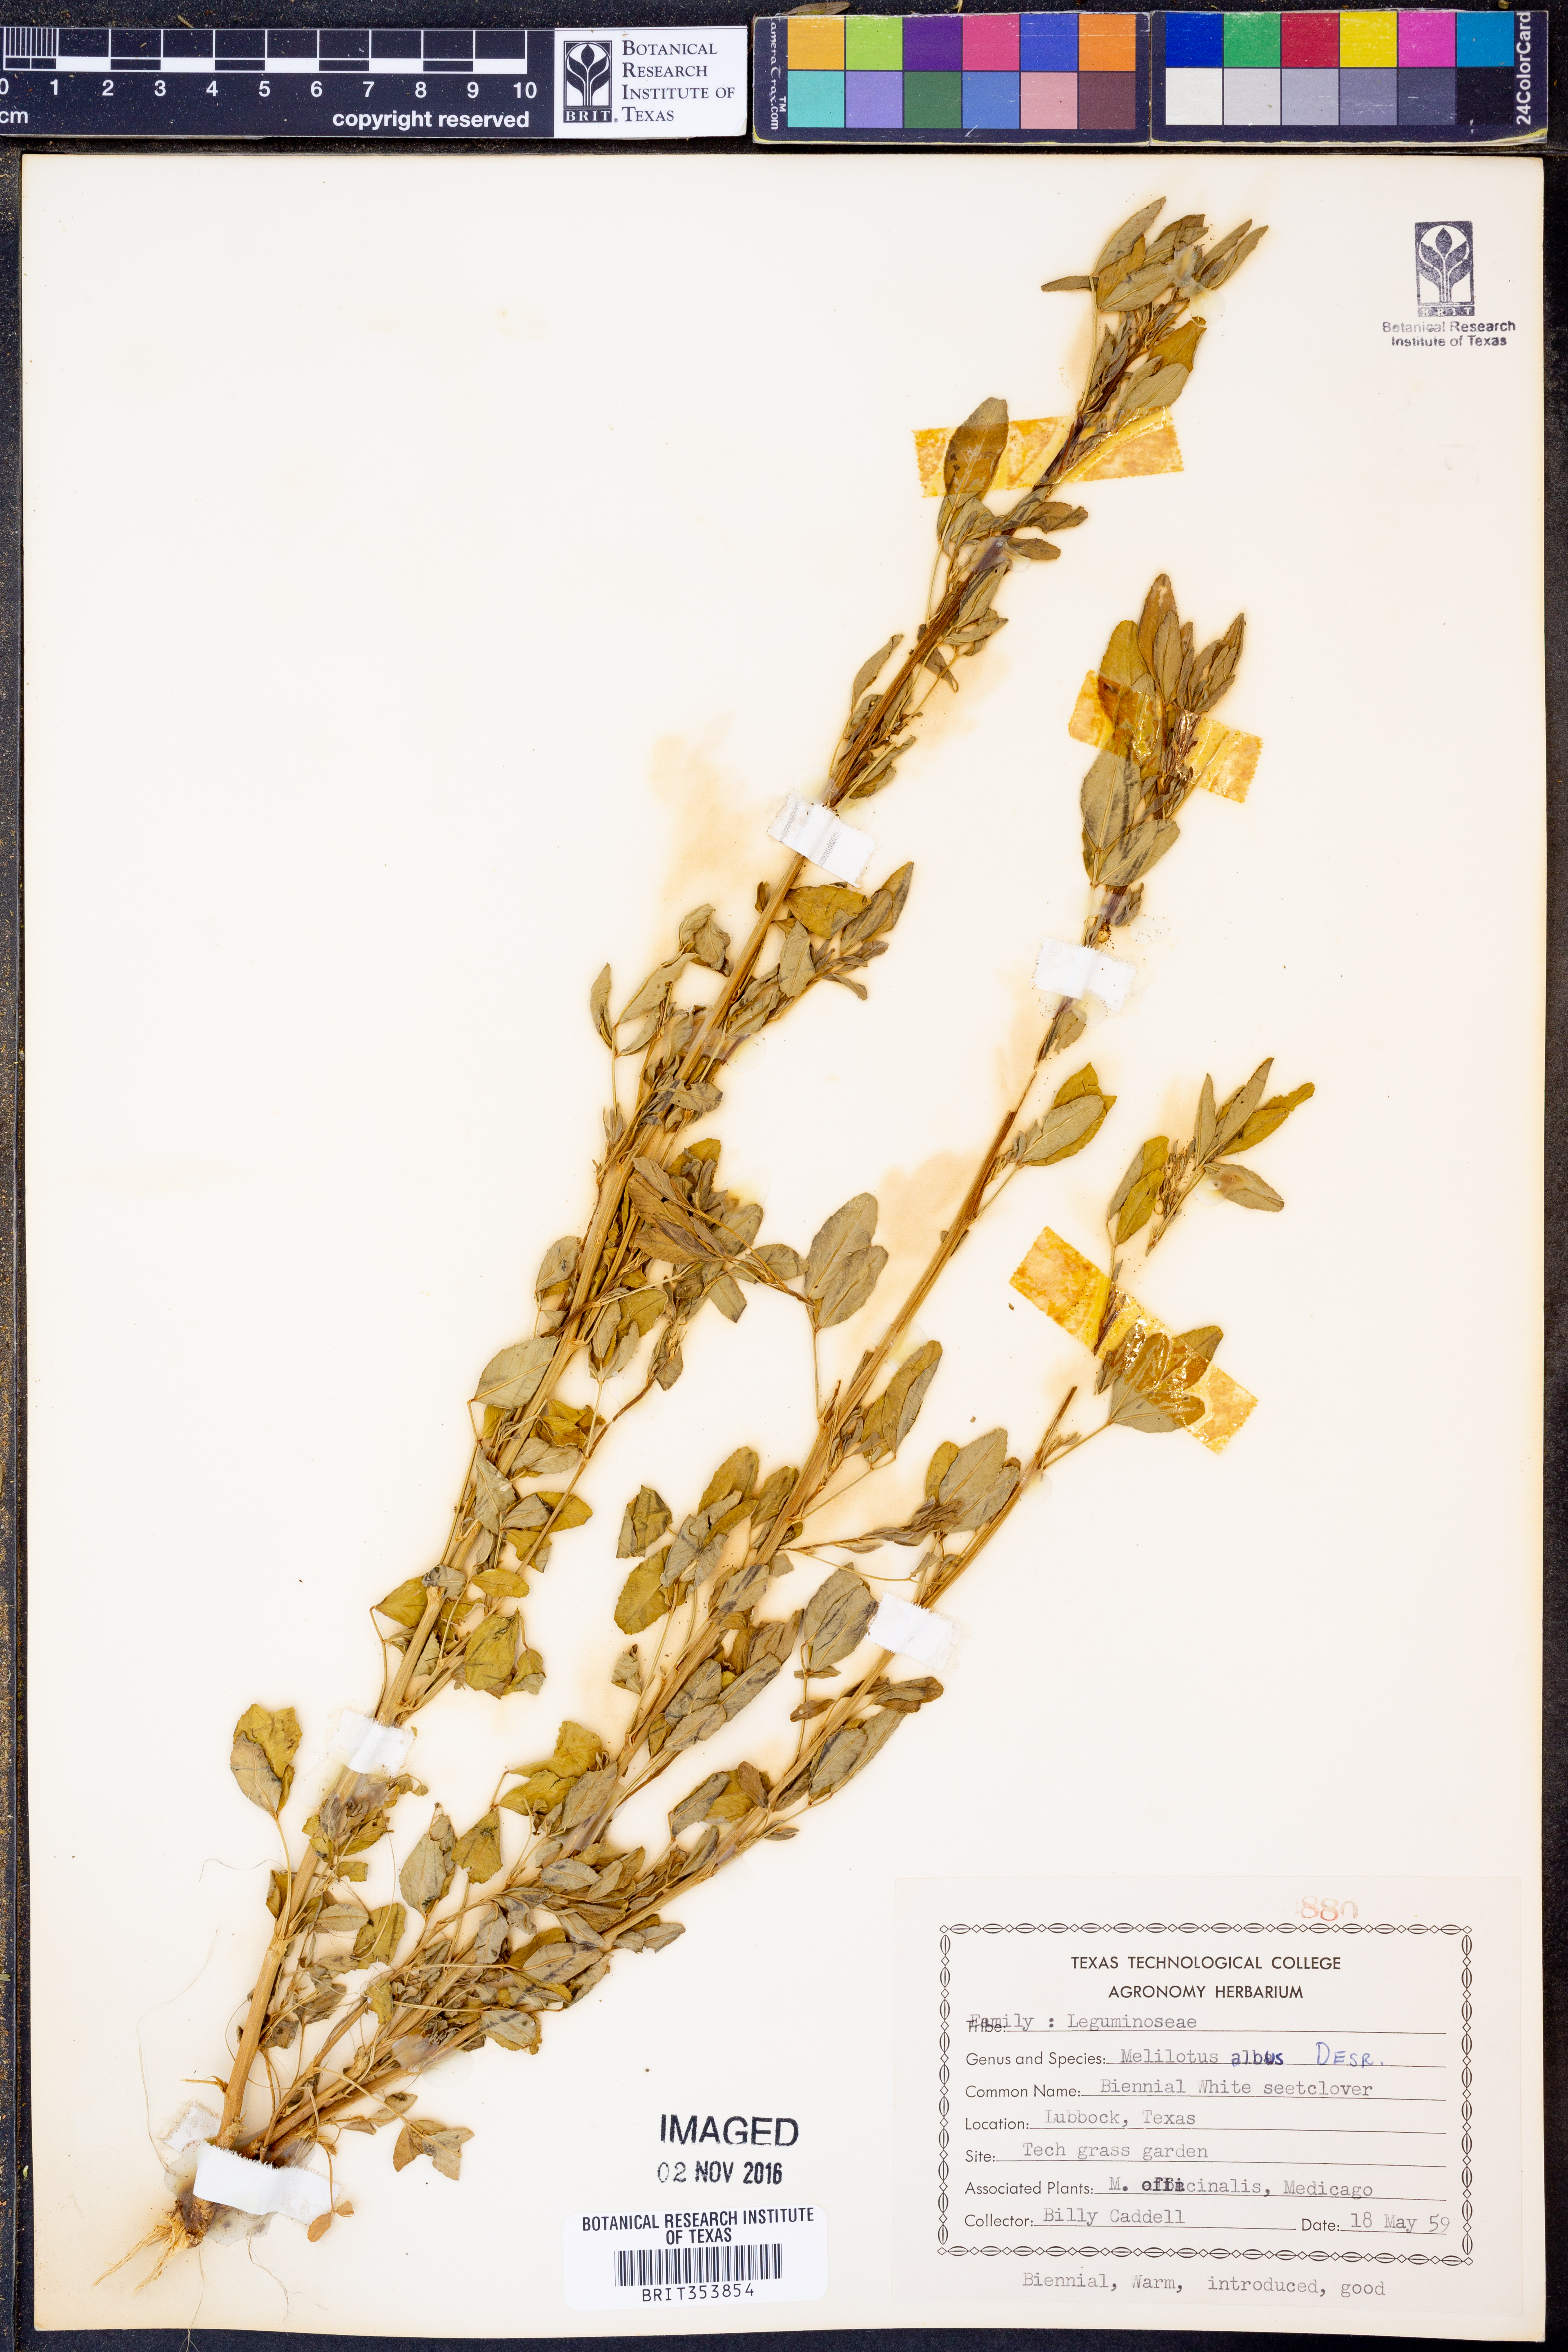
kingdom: Plantae
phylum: Tracheophyta
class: Magnoliopsida
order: Fabales
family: Fabaceae
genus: Melilotus
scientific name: Melilotus albus
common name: White melilot
